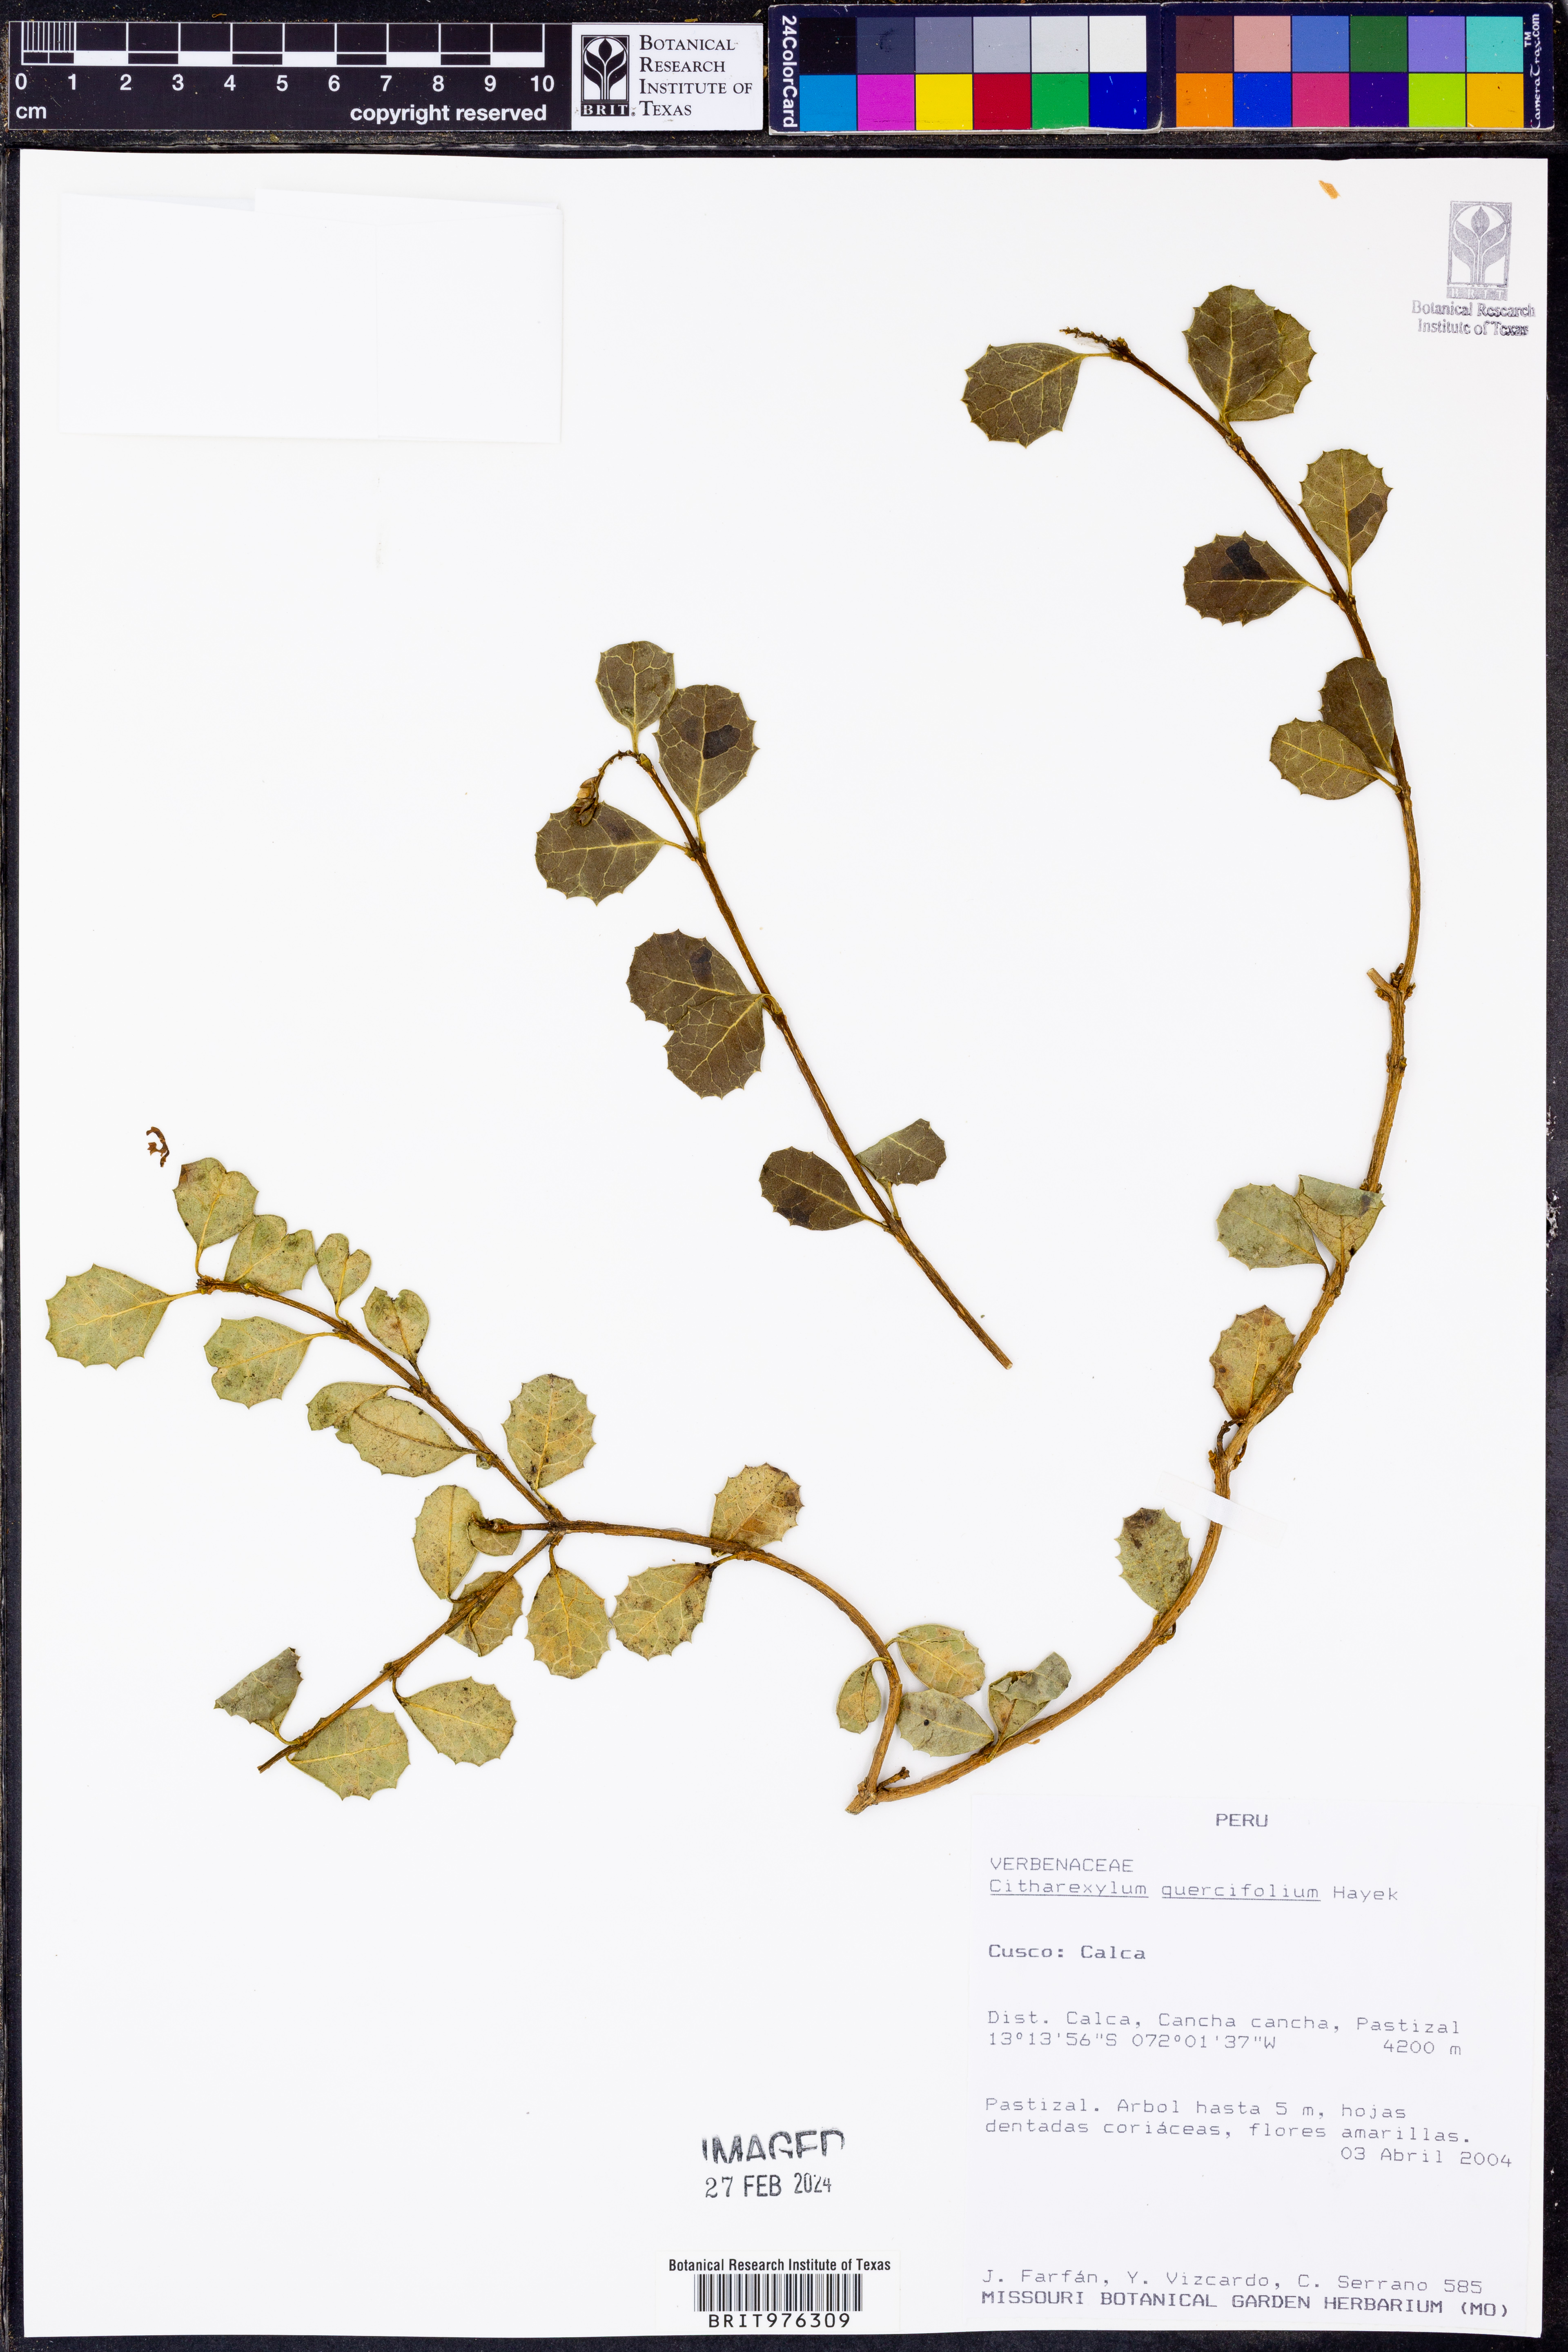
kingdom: Plantae
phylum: Tracheophyta
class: Magnoliopsida
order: Lamiales
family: Verbenaceae
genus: Citharexylum
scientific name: Citharexylum
